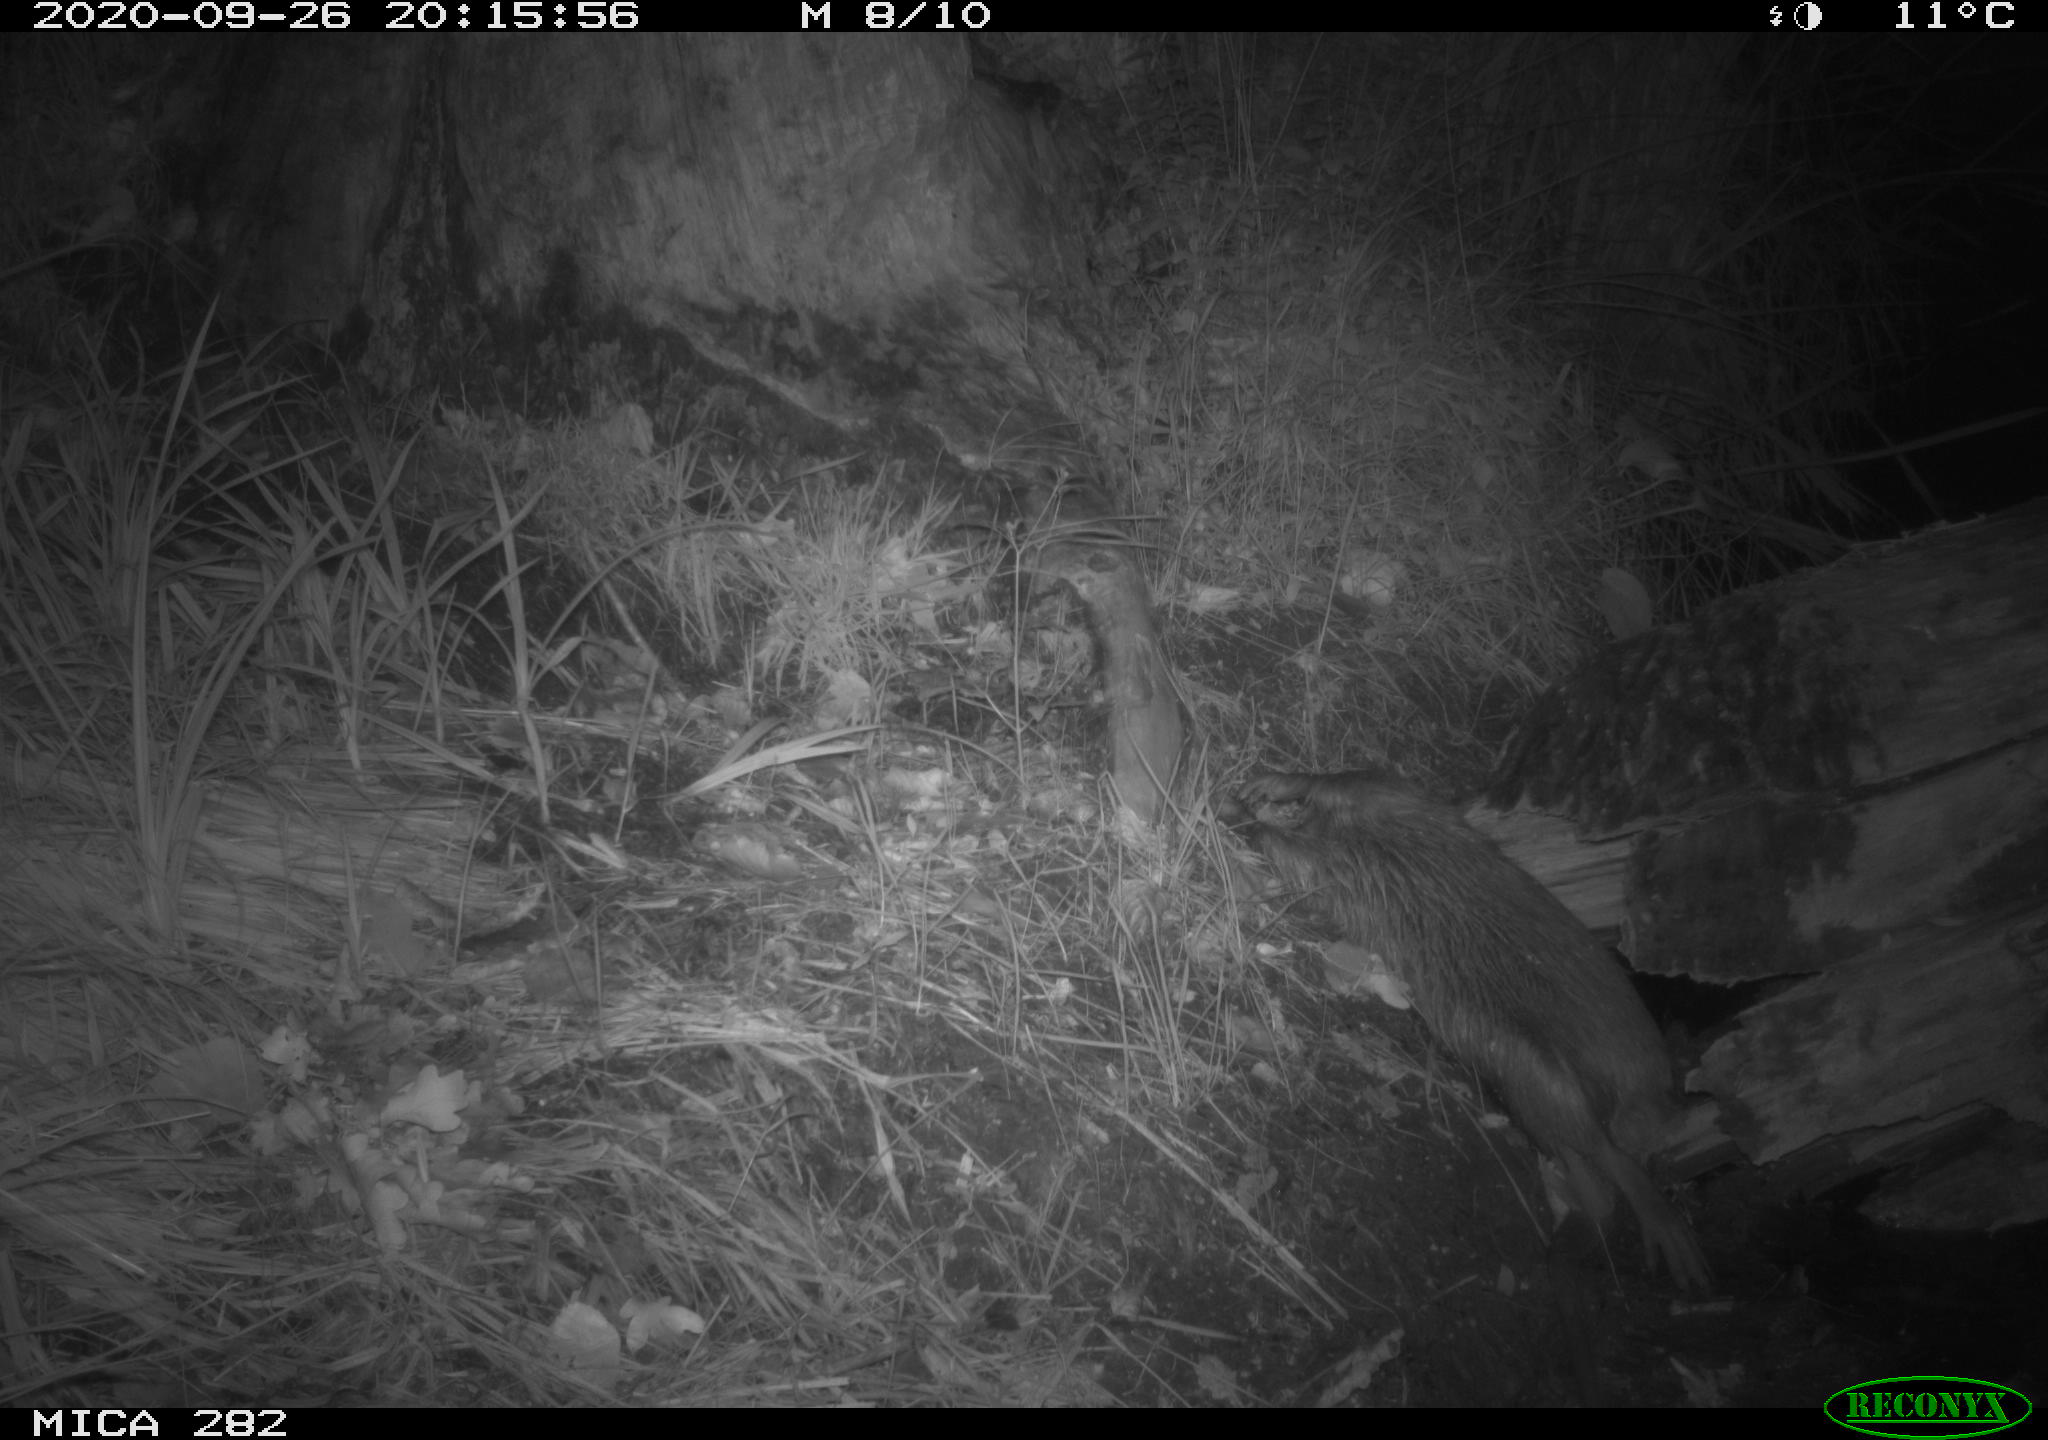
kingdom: Animalia
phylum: Chordata
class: Mammalia
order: Soricomorpha
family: Soricidae
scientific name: Soricidae
